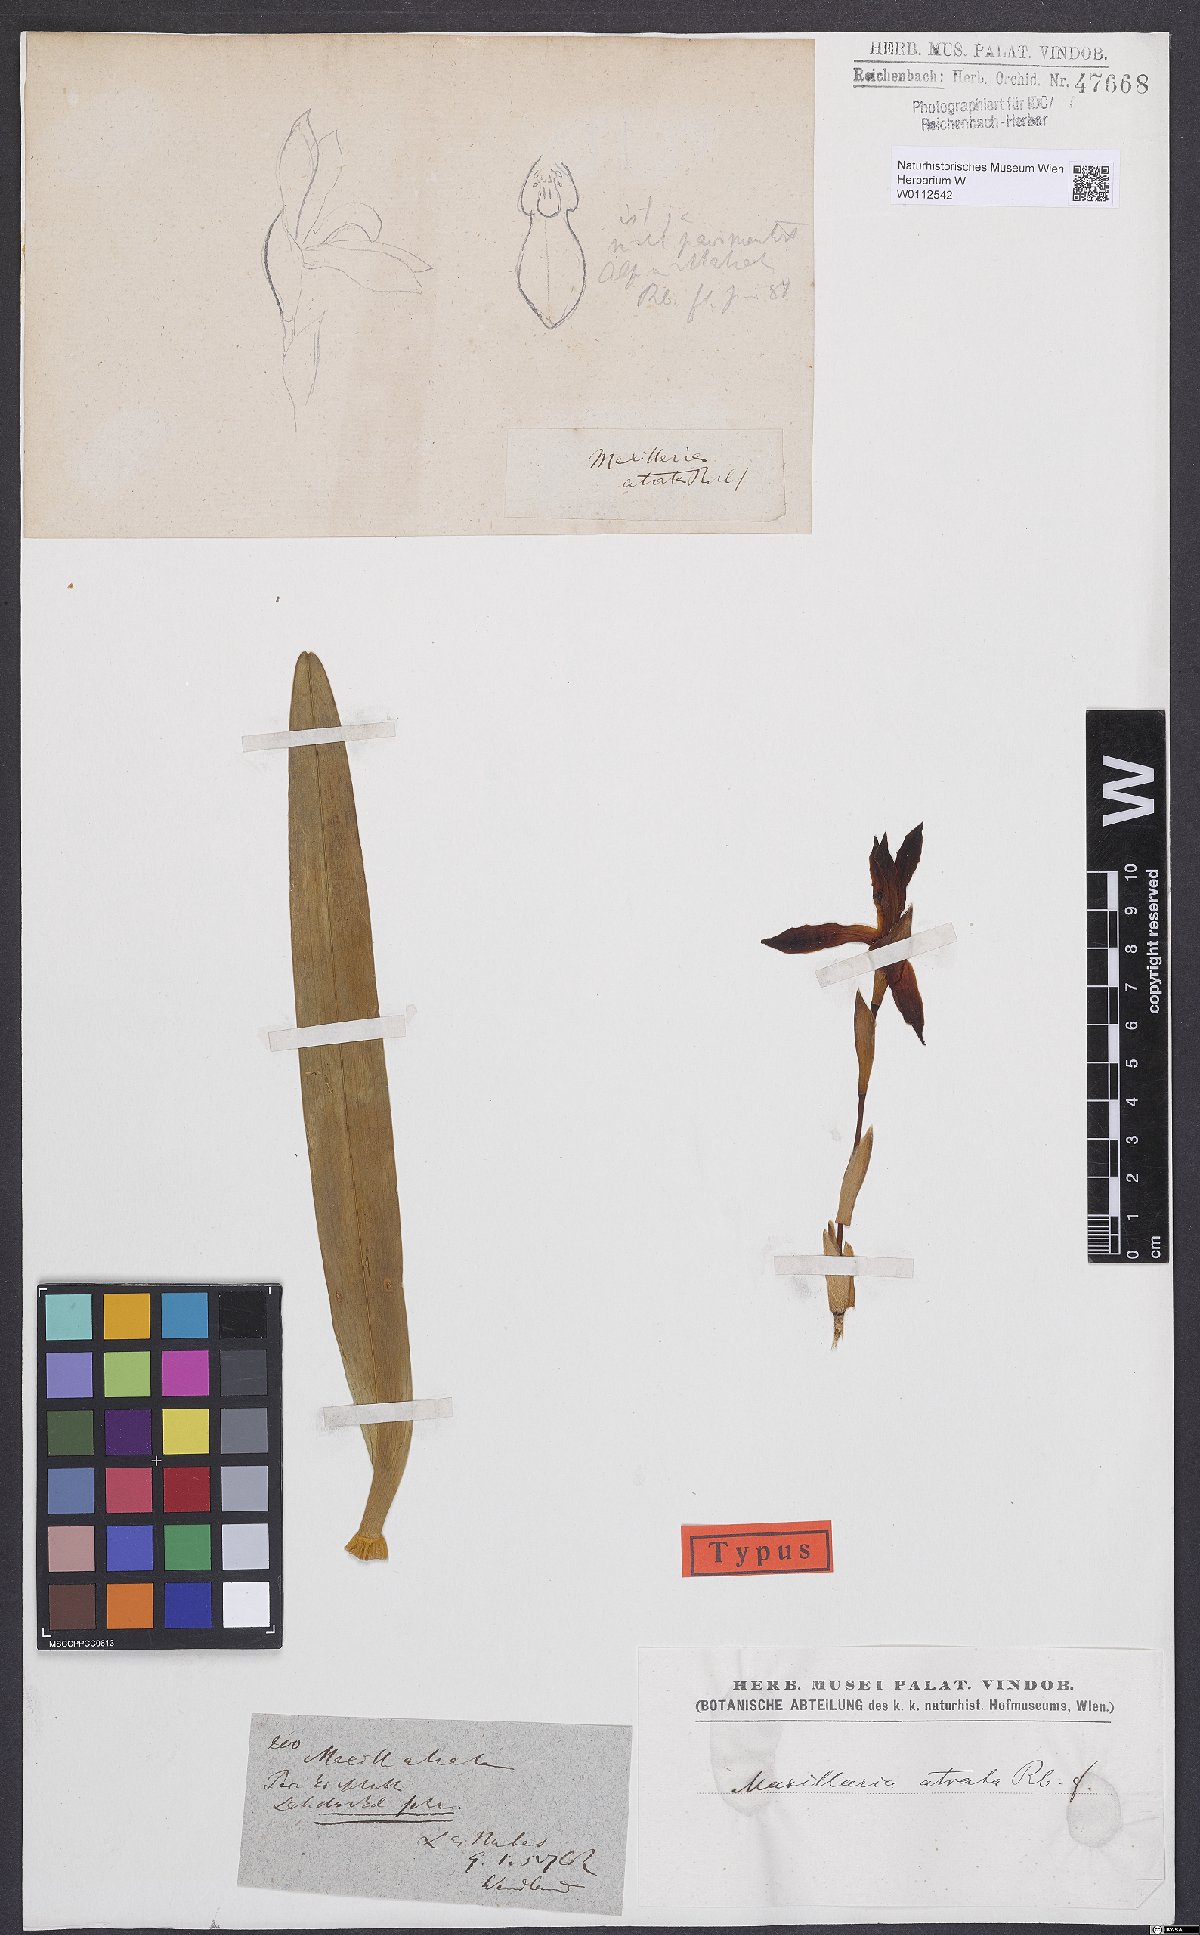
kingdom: Plantae
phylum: Tracheophyta
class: Liliopsida
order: Asparagales
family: Orchidaceae
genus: Maxillaria
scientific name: Maxillaria cucullata
